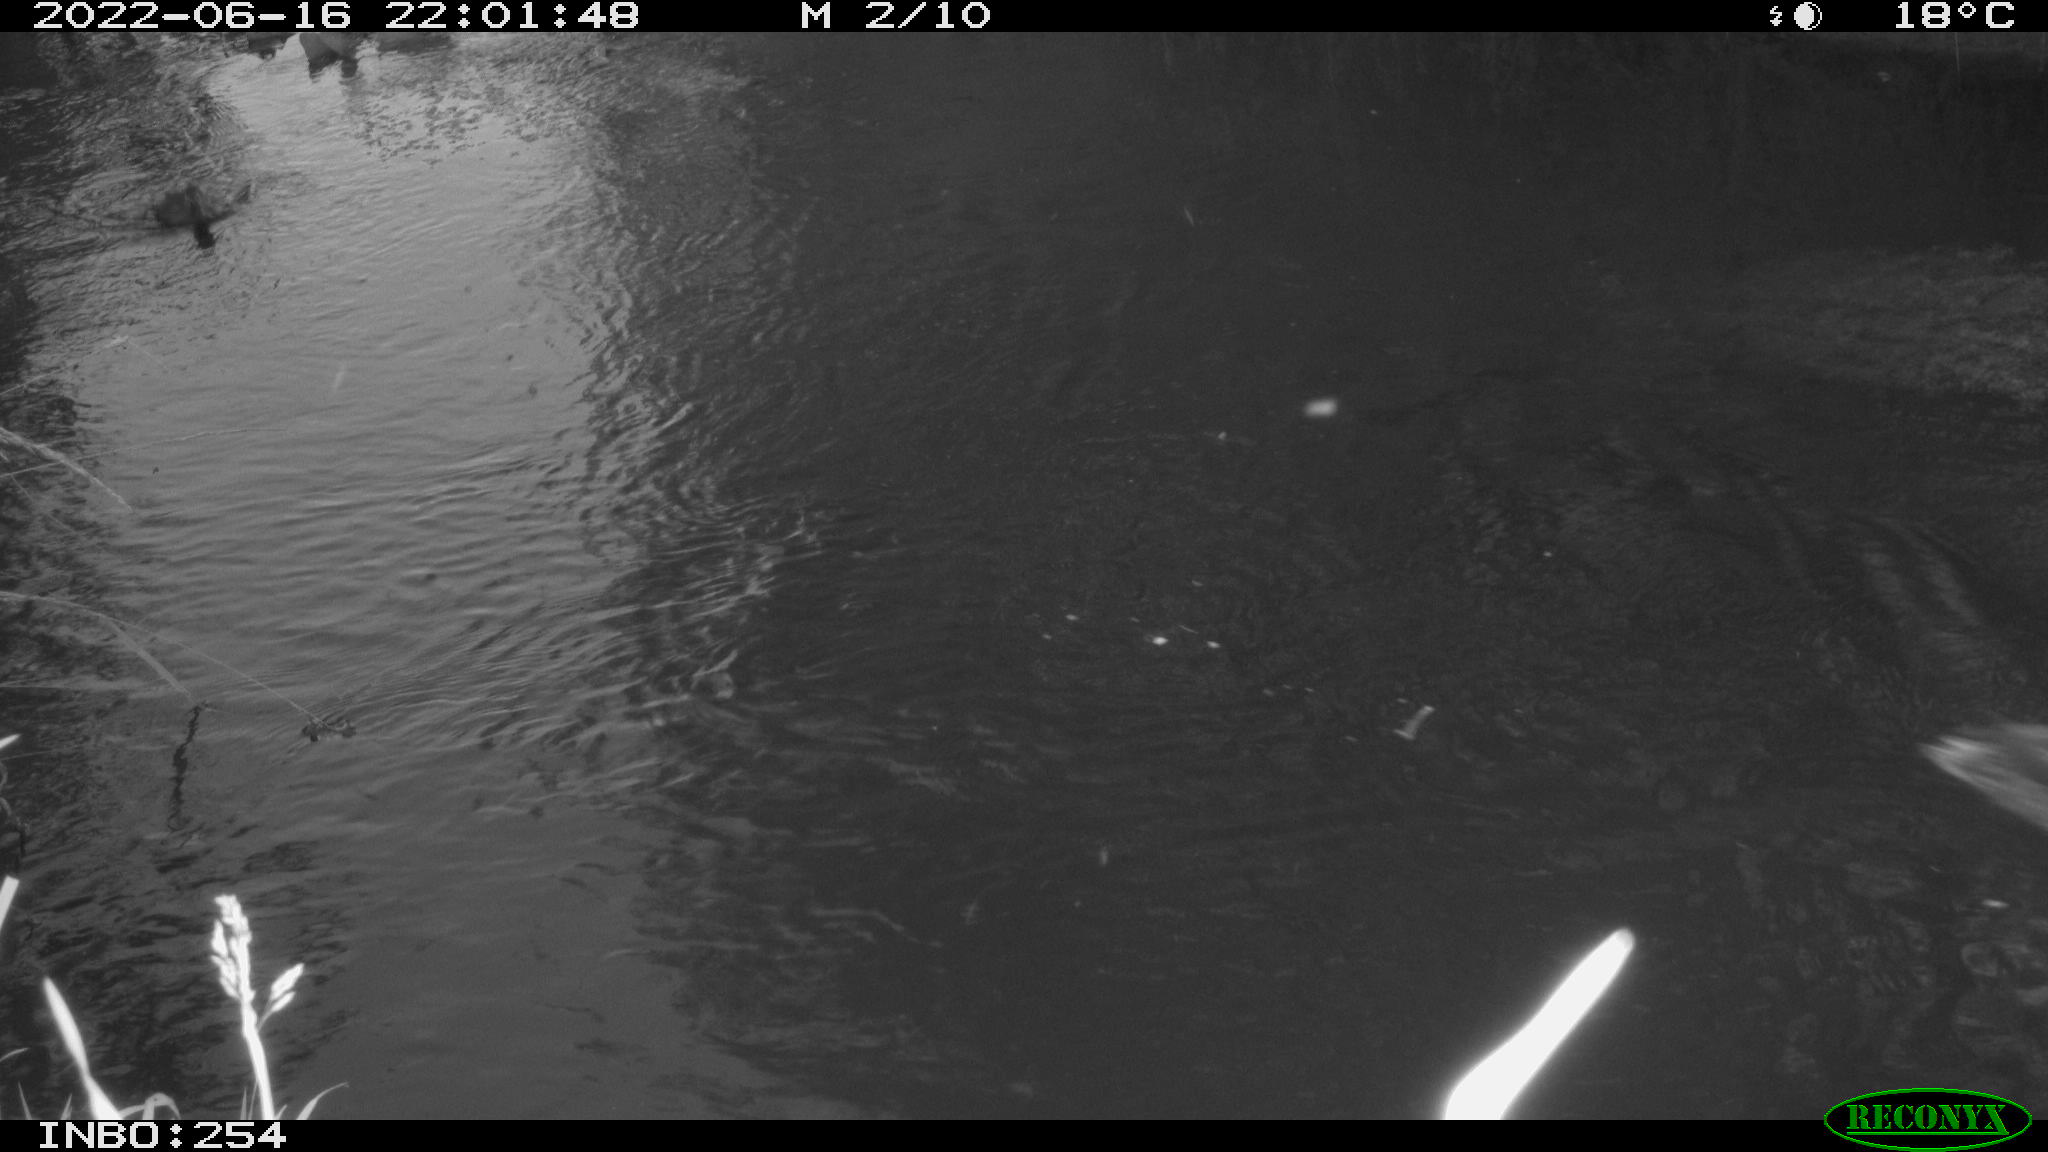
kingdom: Animalia
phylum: Chordata
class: Aves
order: Anseriformes
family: Anatidae
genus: Anas
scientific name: Anas platyrhynchos
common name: Mallard
